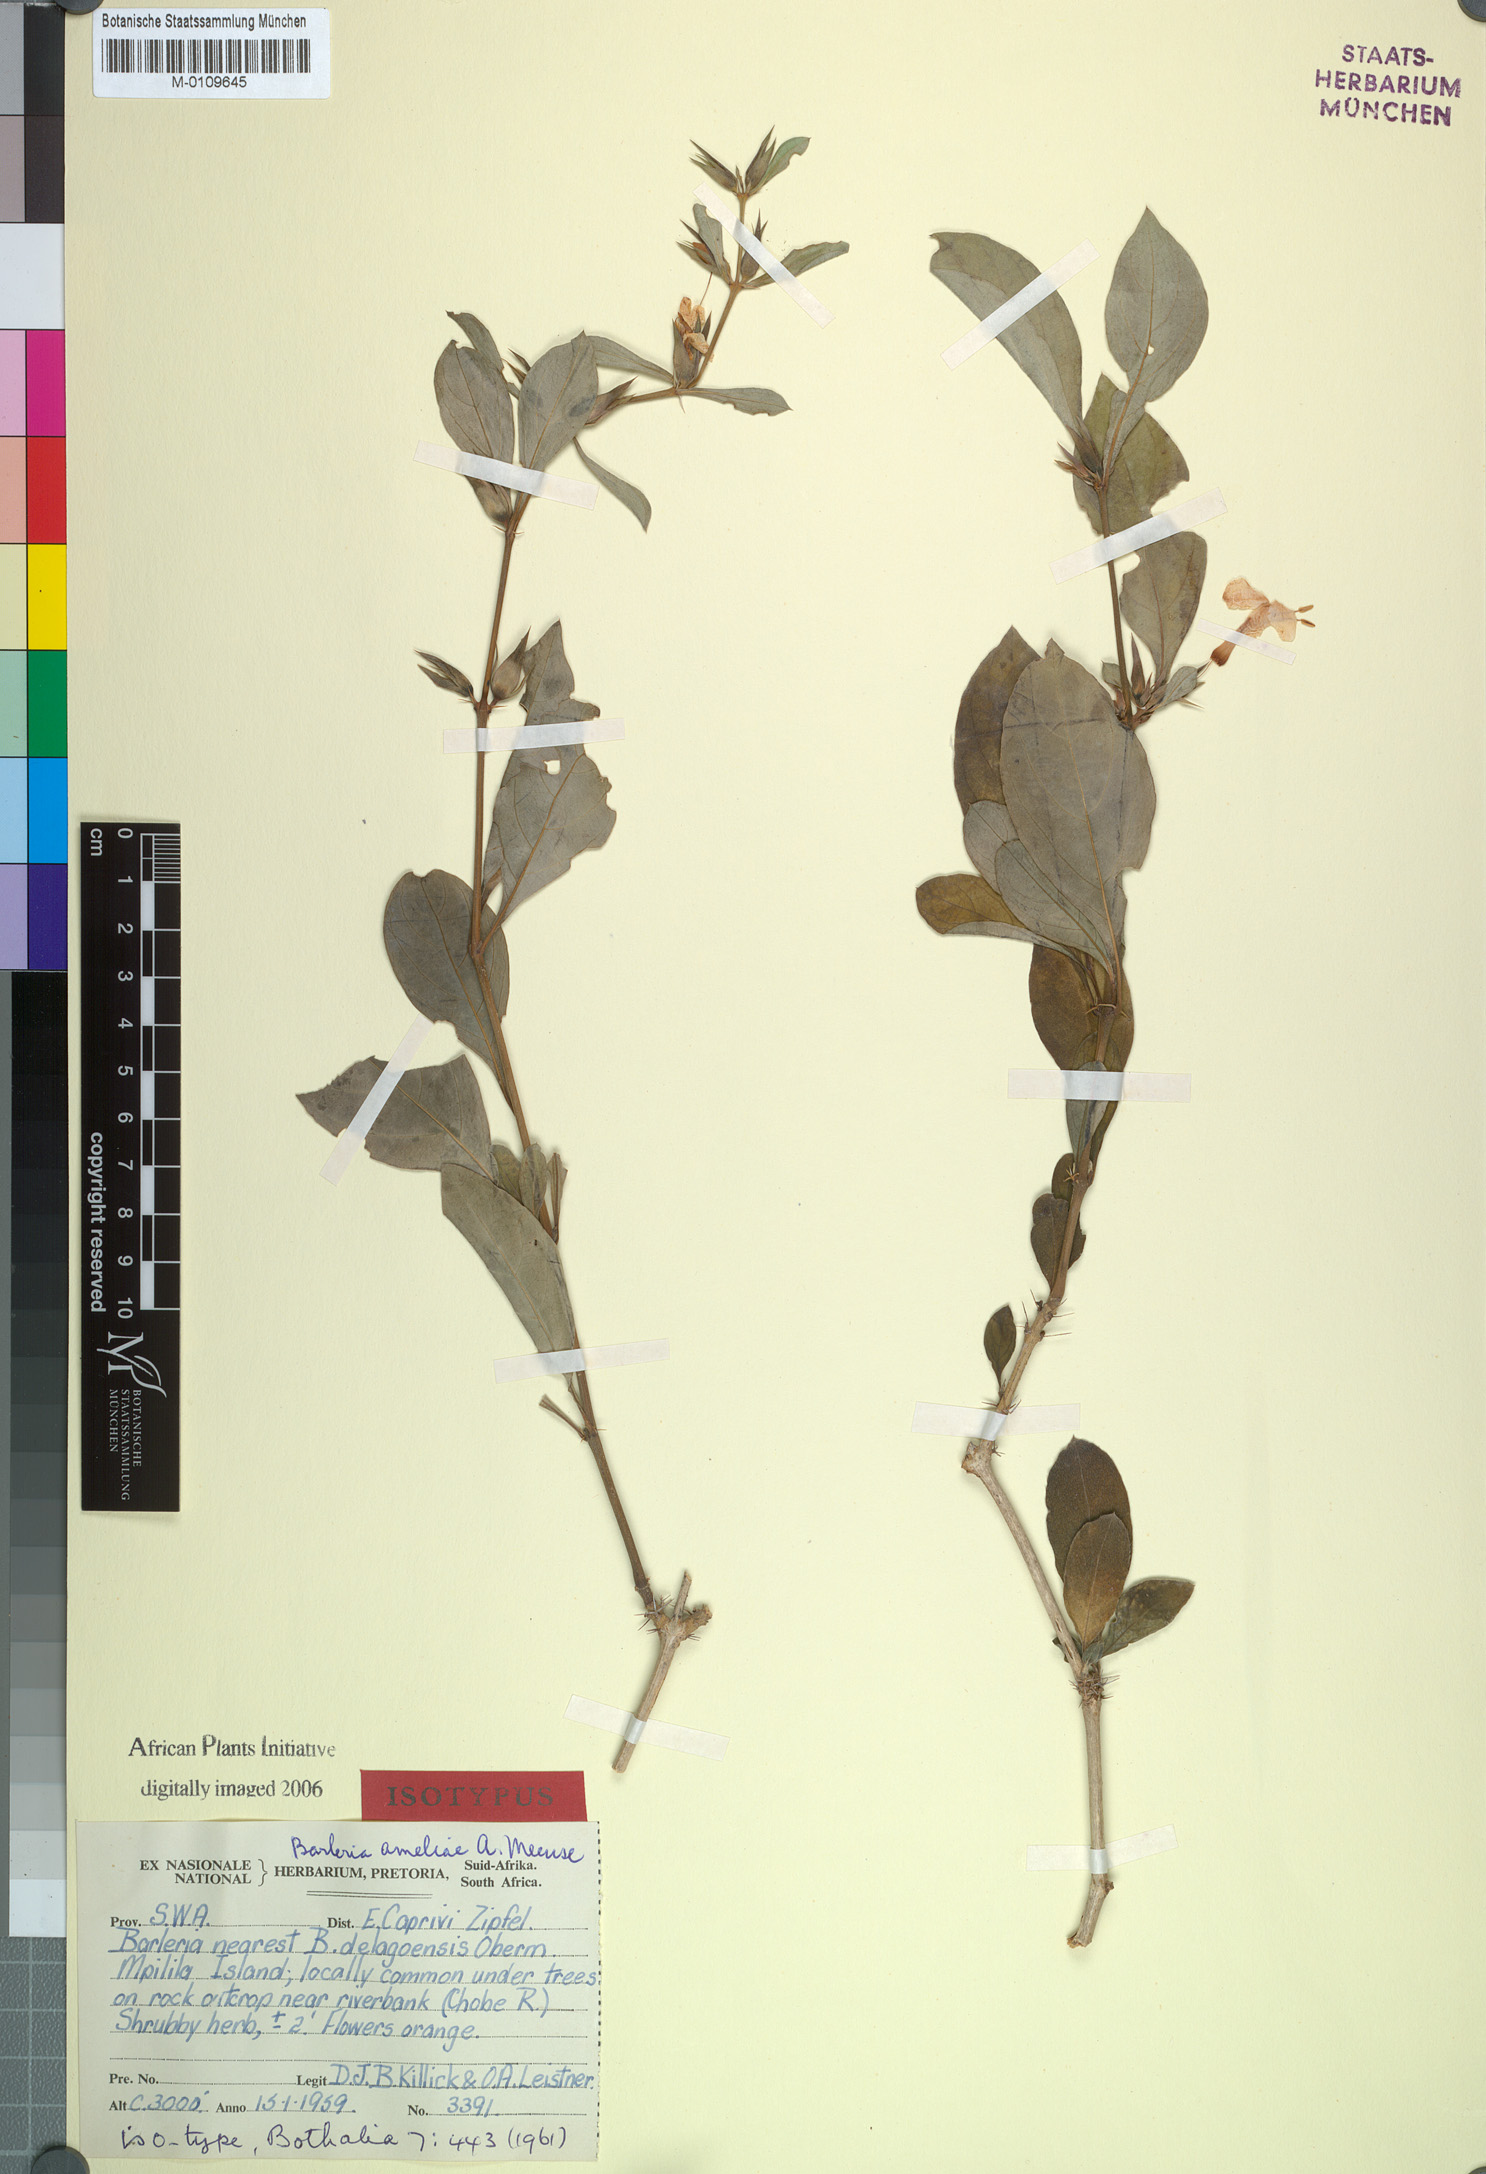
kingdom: Plantae
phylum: Tracheophyta
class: Magnoliopsida
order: Lamiales
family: Acanthaceae
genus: Barleria
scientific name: Barleria ameliae
